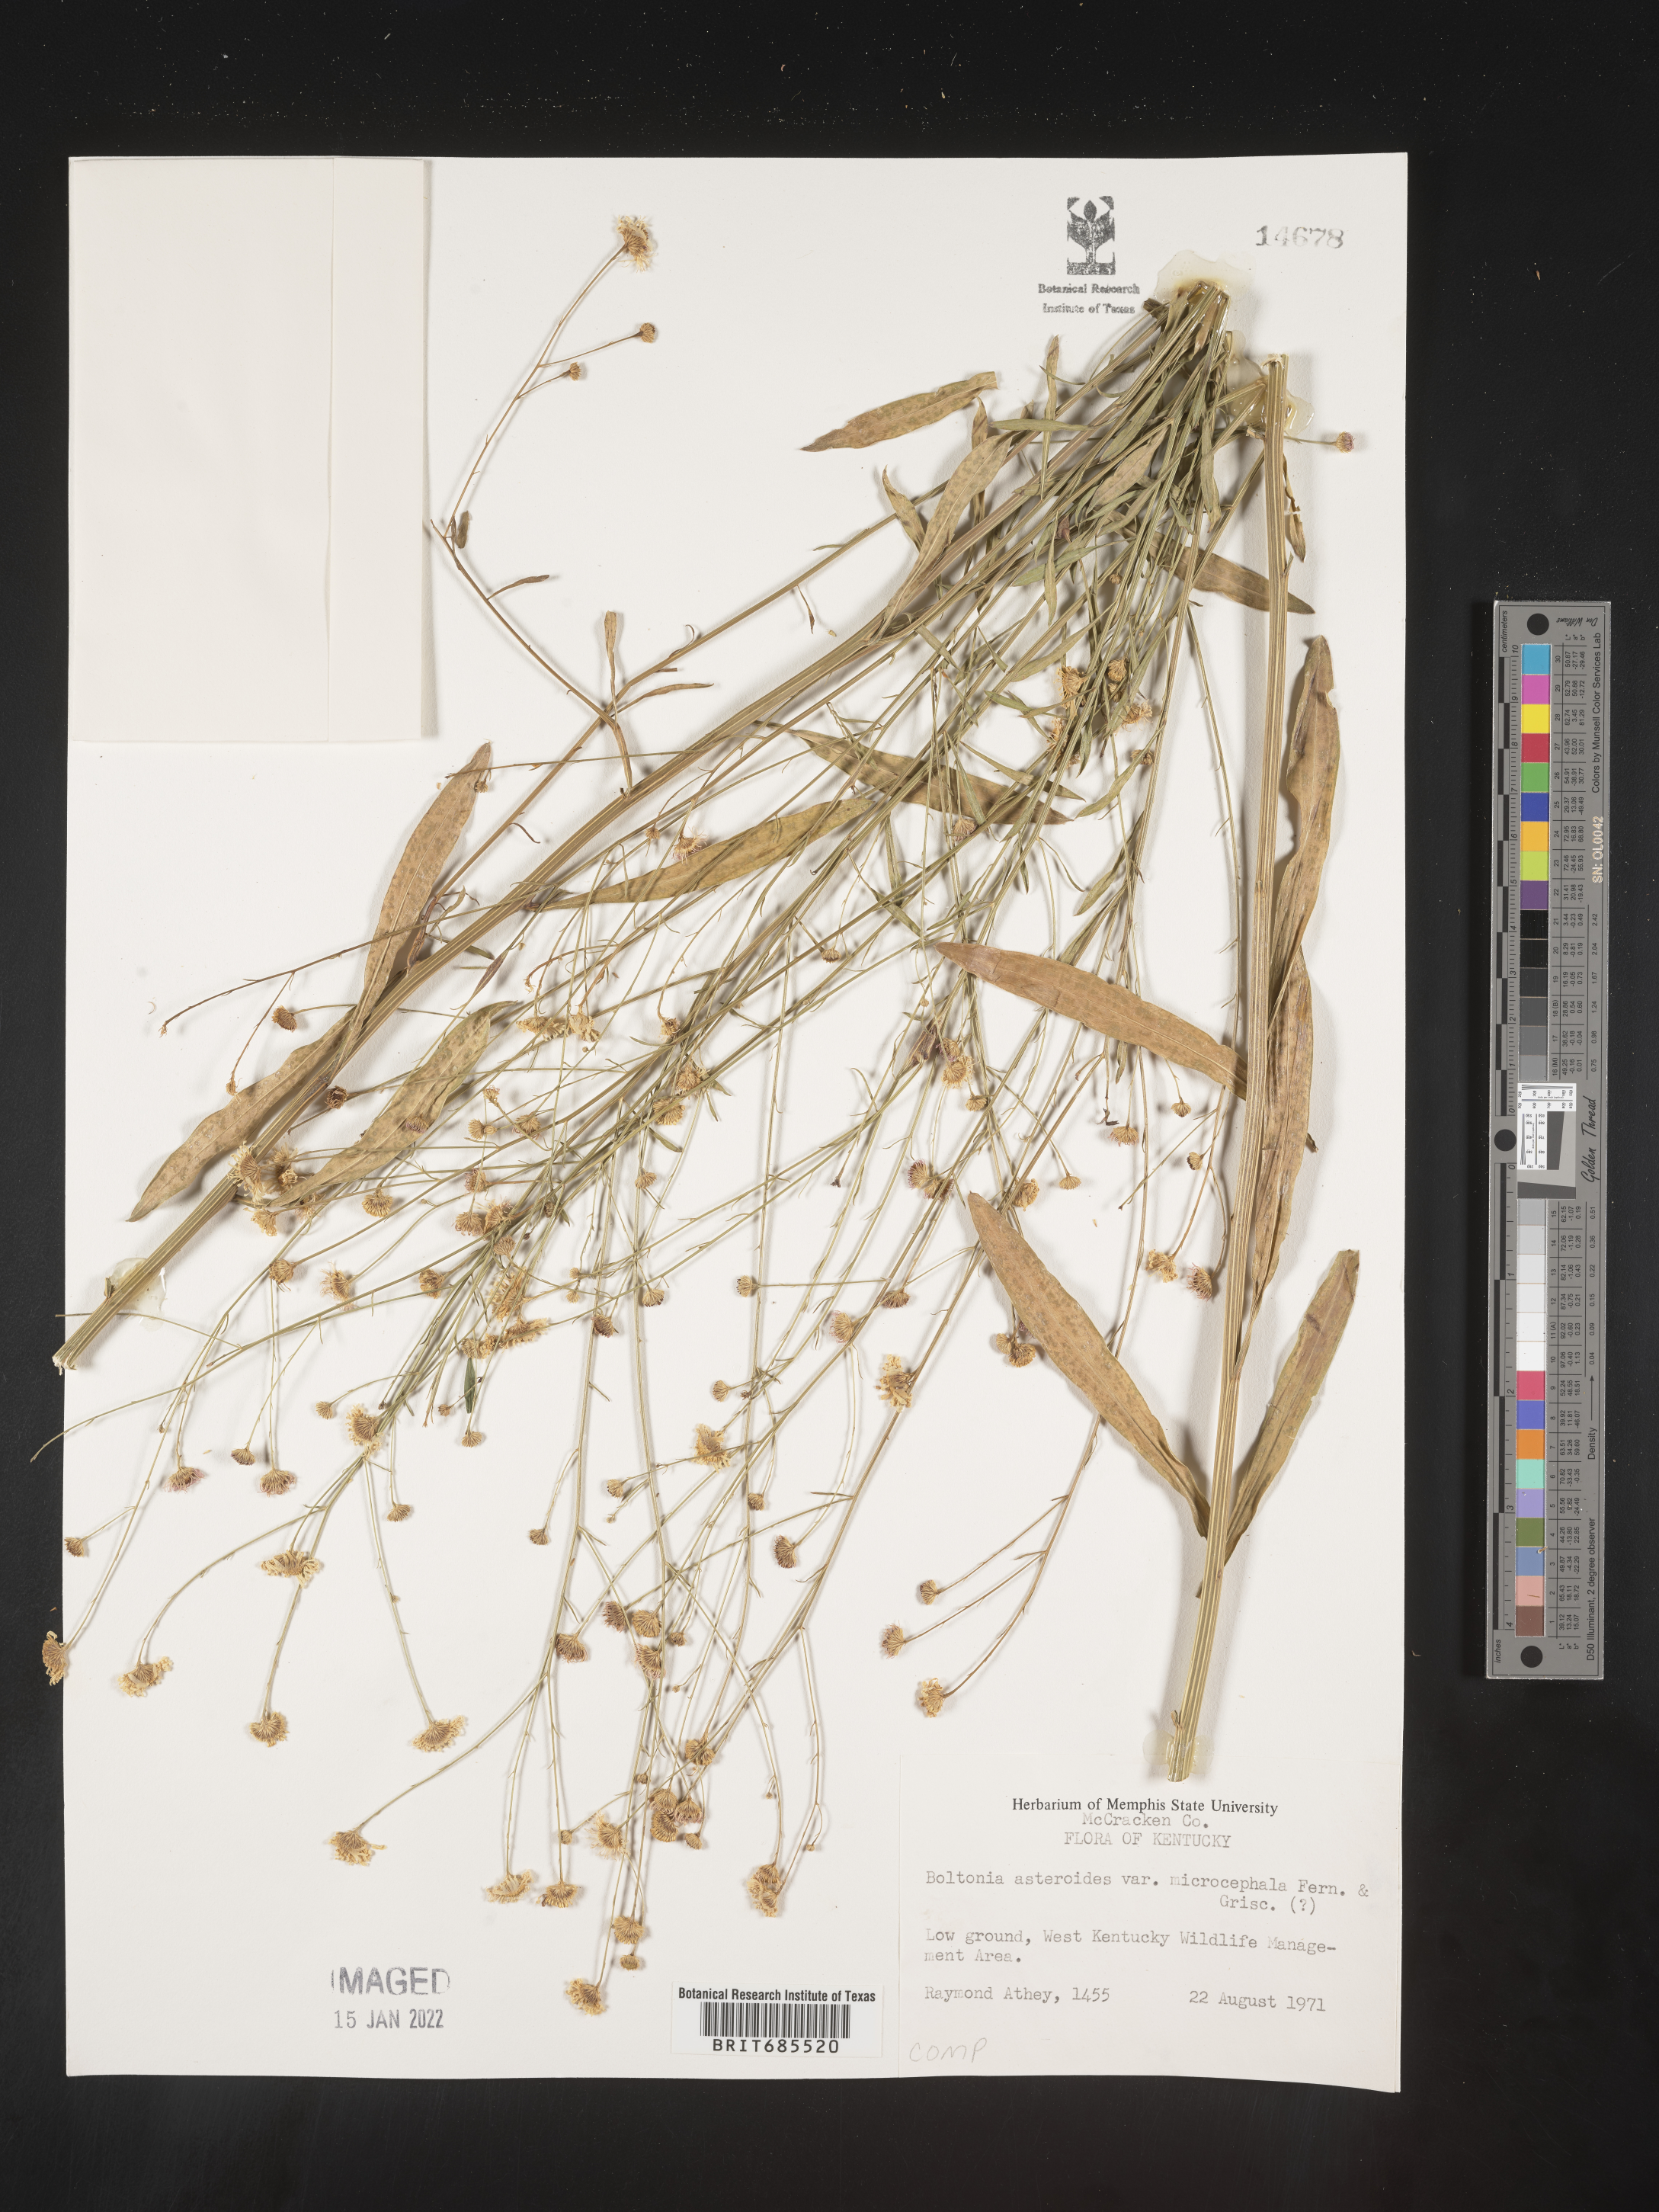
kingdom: Plantae
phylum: Tracheophyta
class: Magnoliopsida
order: Asterales
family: Asteraceae
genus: Boltonia
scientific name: Boltonia asteroides
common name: False chamomile
